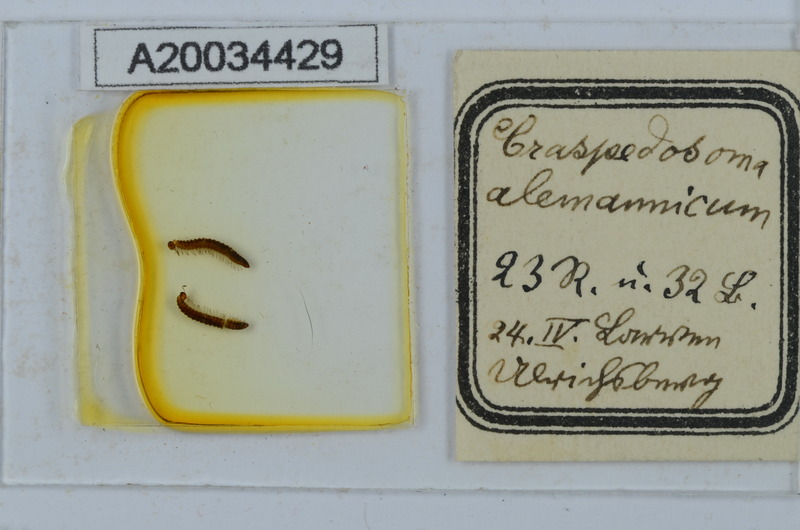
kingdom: Animalia
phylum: Arthropoda
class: Diplopoda
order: Chordeumatida
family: Craspedosomatidae
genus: Craspedosoma
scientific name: Craspedosoma alemannicum
